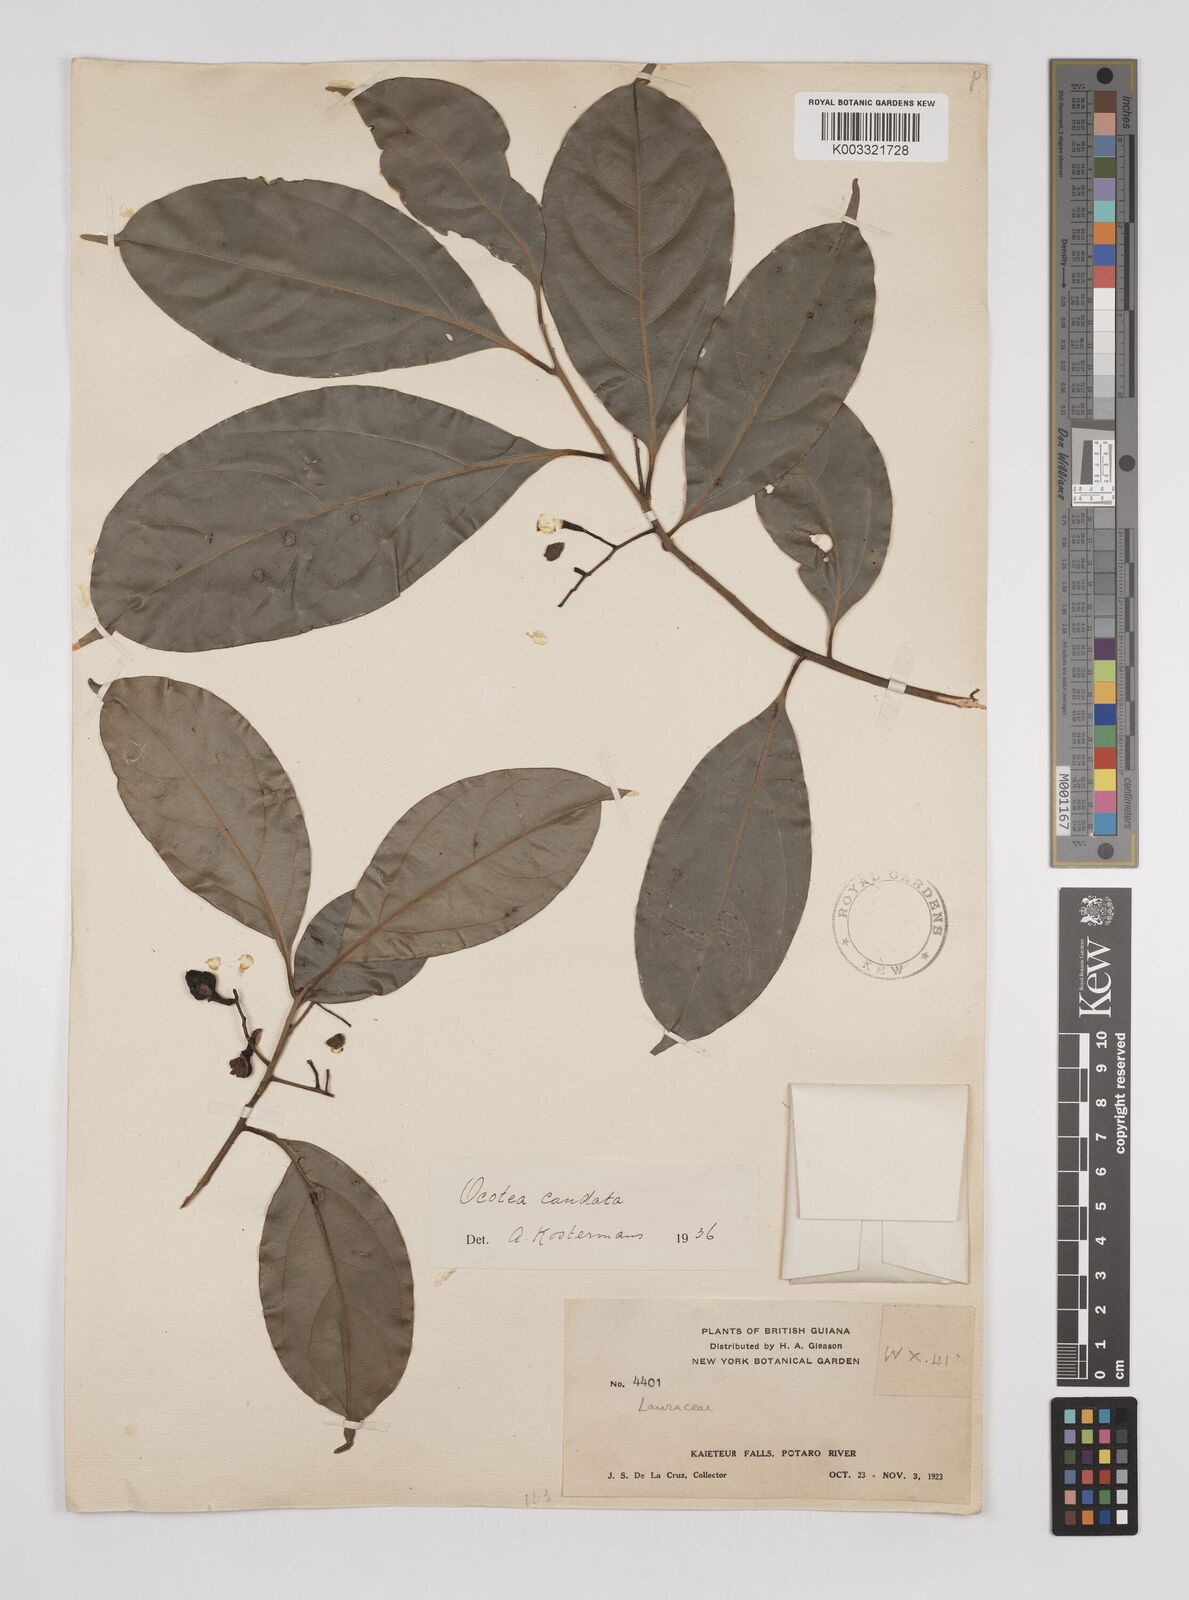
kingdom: Plantae
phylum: Tracheophyta
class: Magnoliopsida
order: Laurales
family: Lauraceae
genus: Ocotea
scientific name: Ocotea leptobotra
